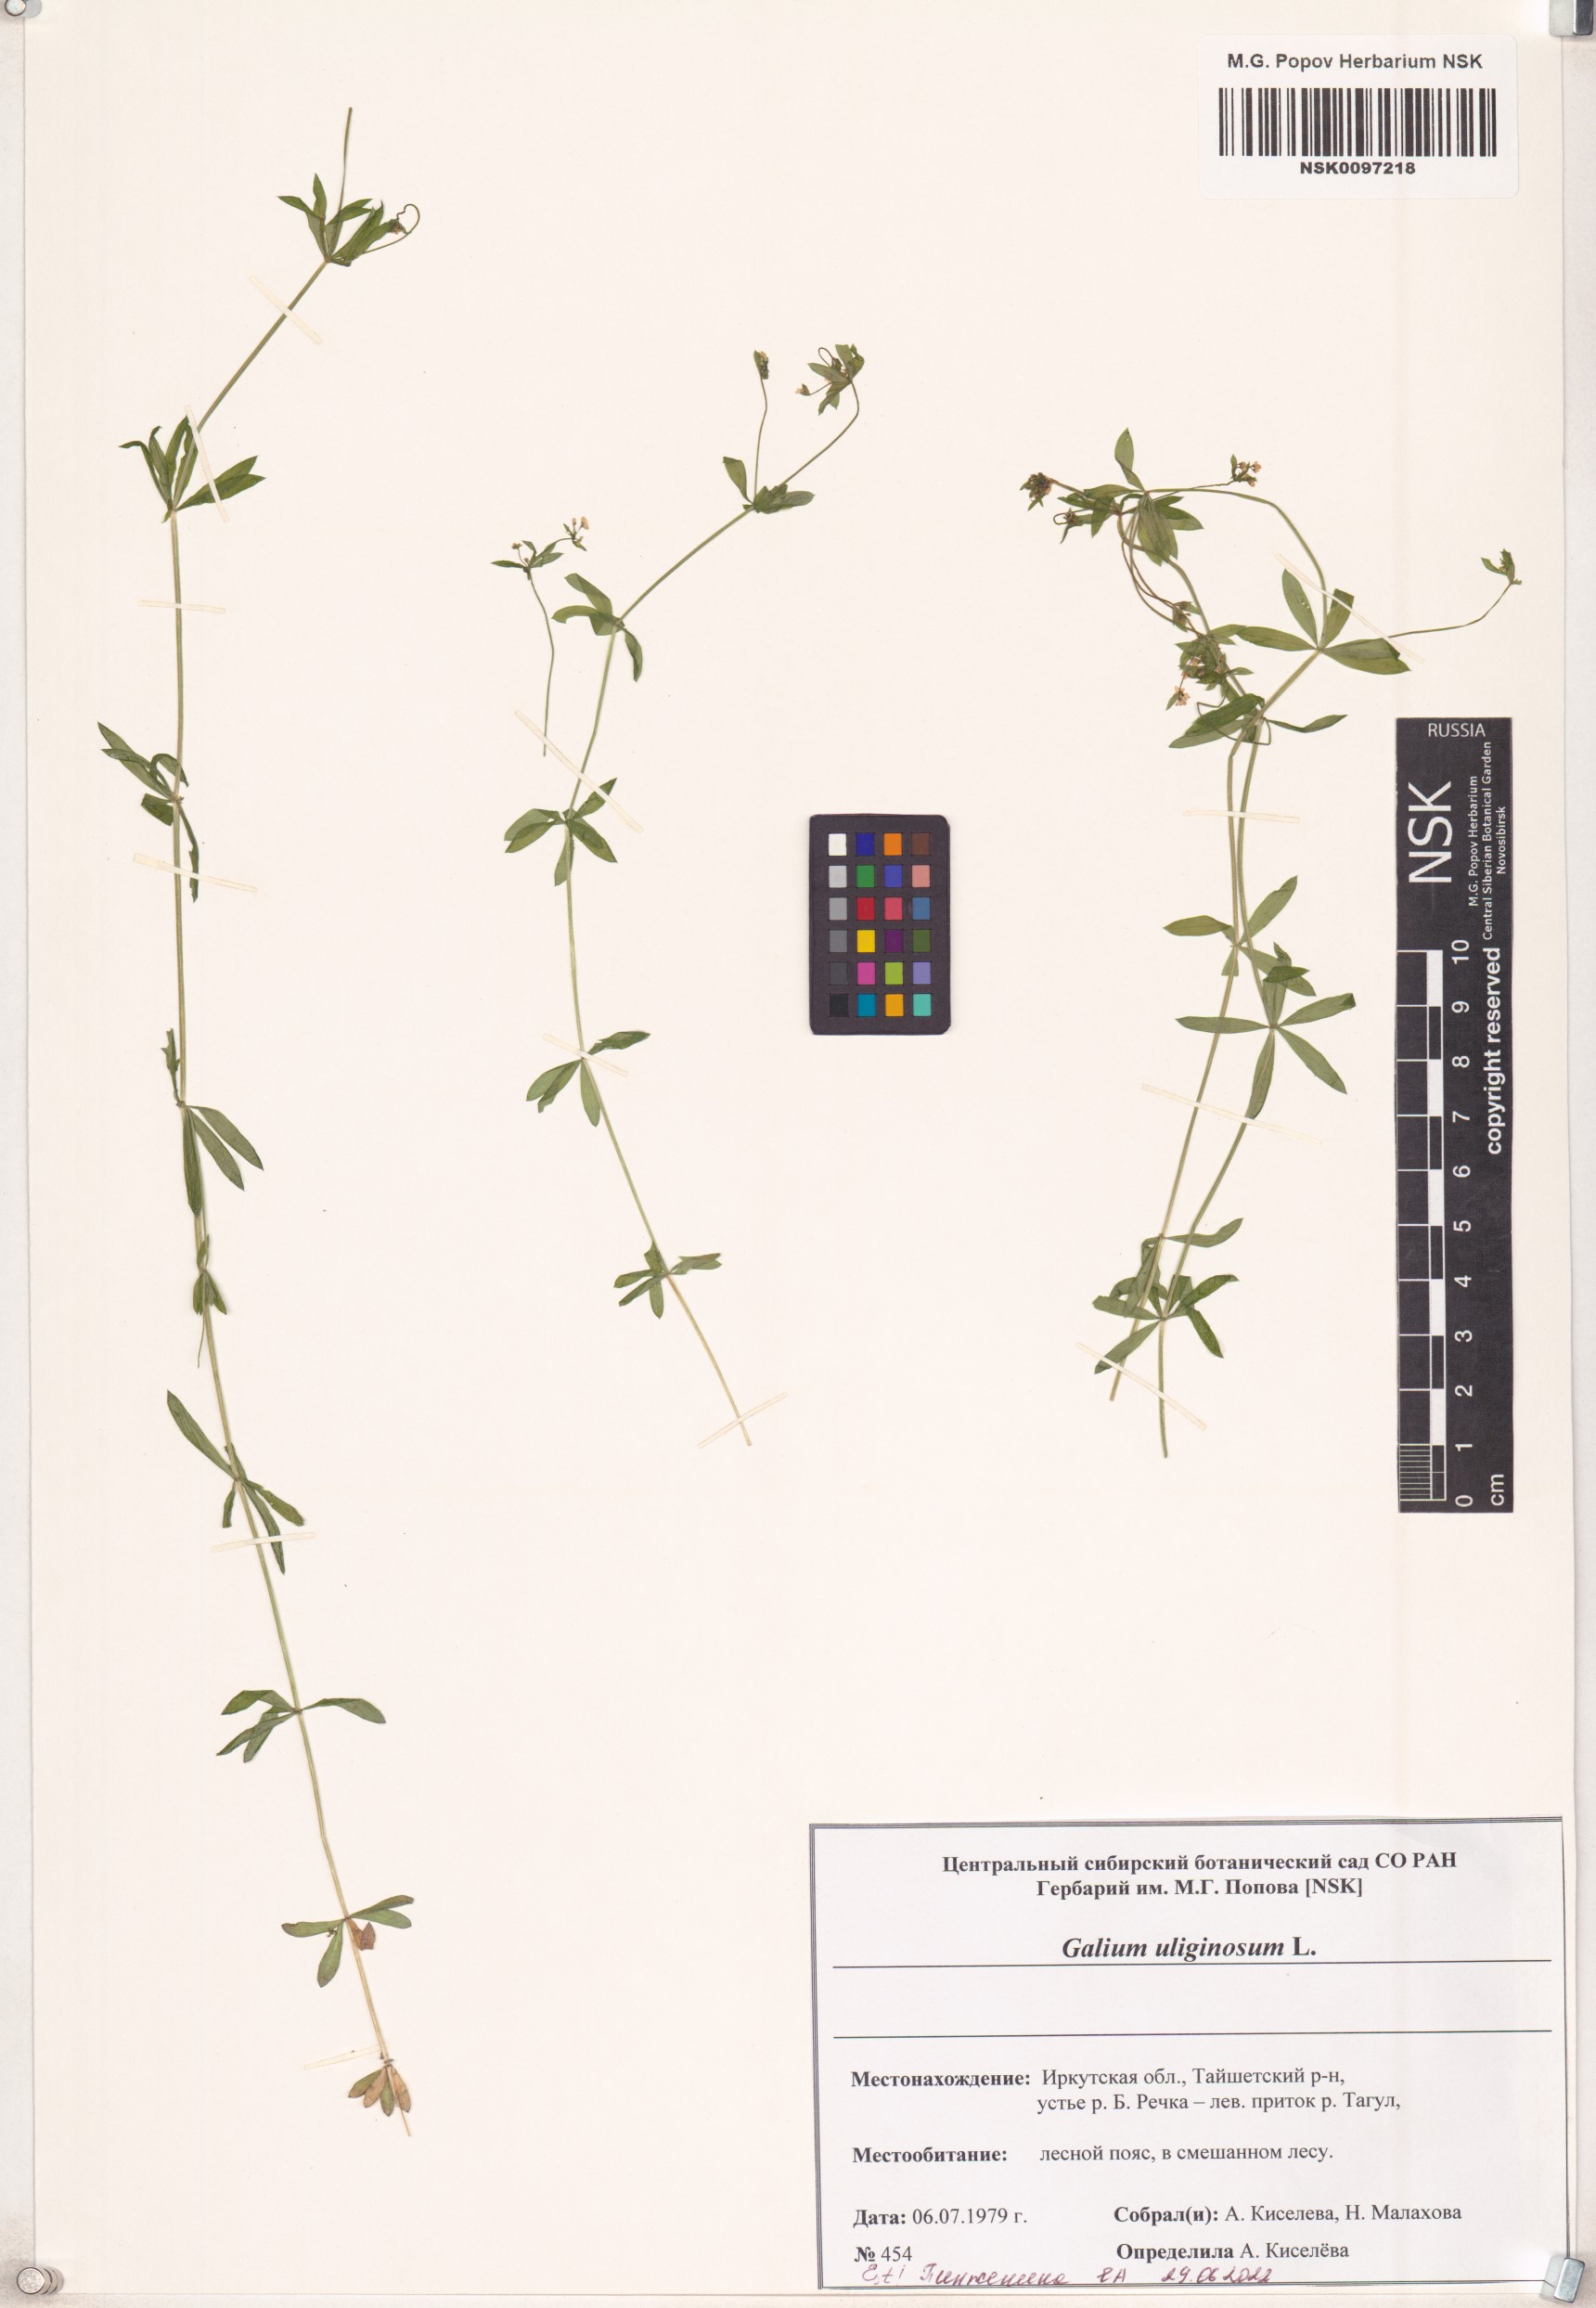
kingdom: Plantae
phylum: Tracheophyta
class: Magnoliopsida
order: Gentianales
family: Rubiaceae
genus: Galium
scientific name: Galium uliginosum
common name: Fen bedstraw
